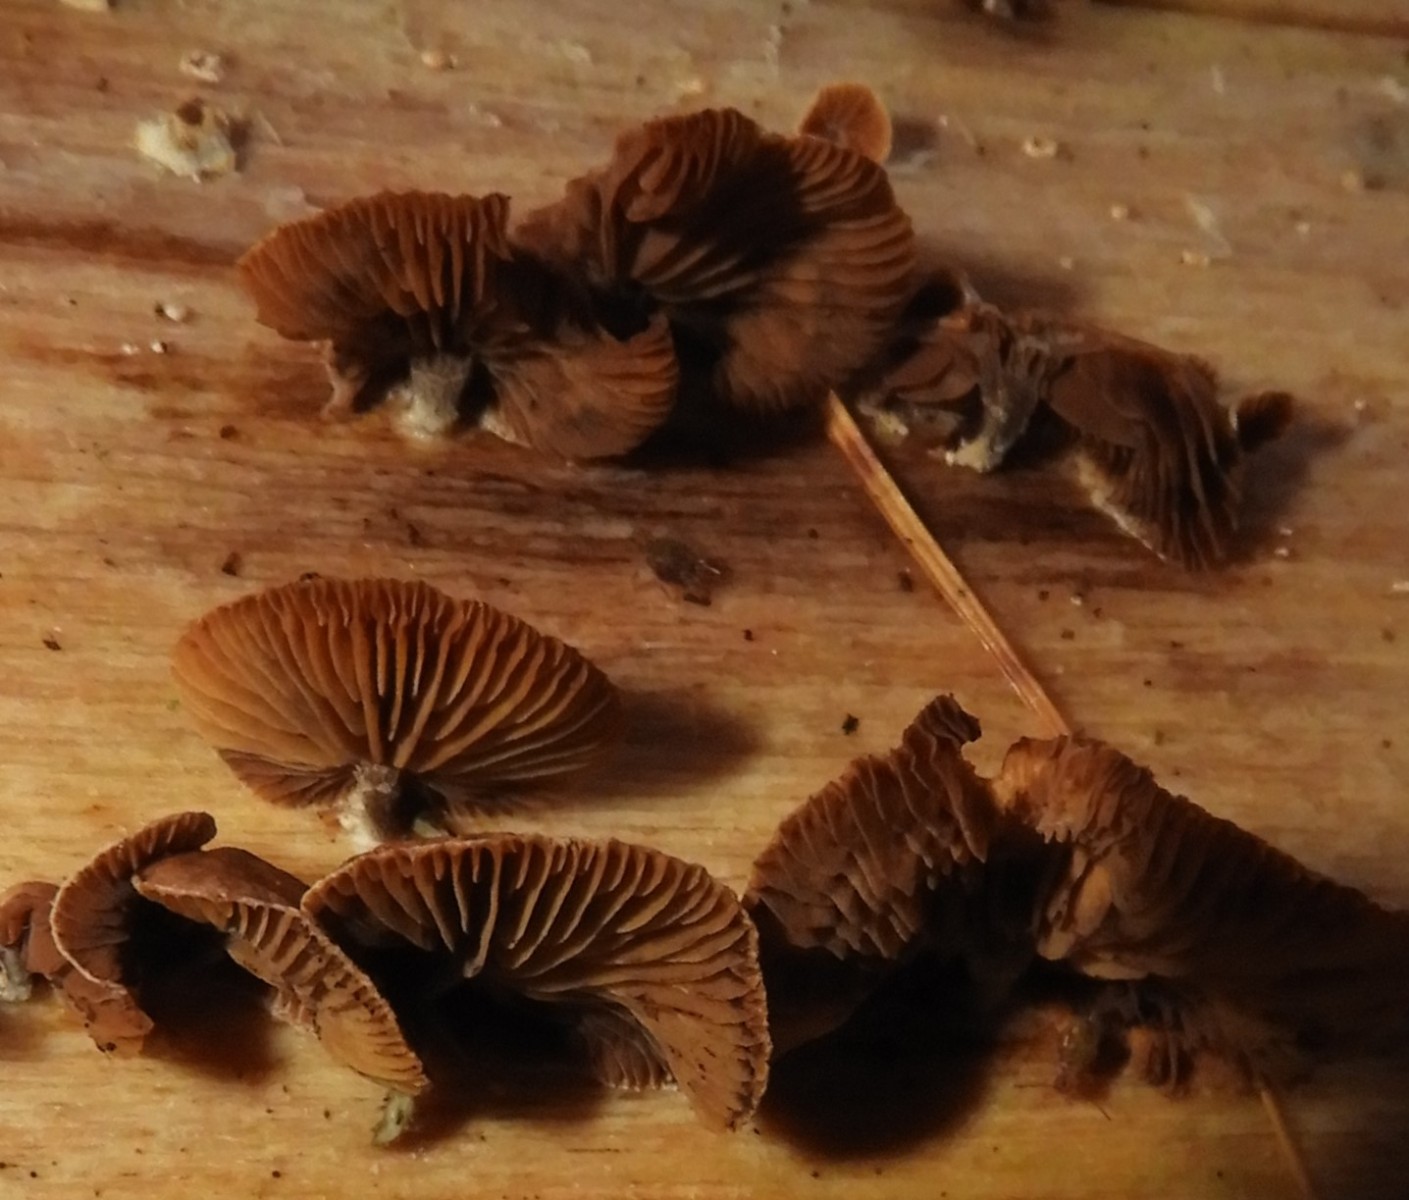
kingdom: Fungi
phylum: Basidiomycota
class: Agaricomycetes
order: Agaricales
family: Strophariaceae
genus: Deconica
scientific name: Deconica horizontalis
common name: ved-stråhat
